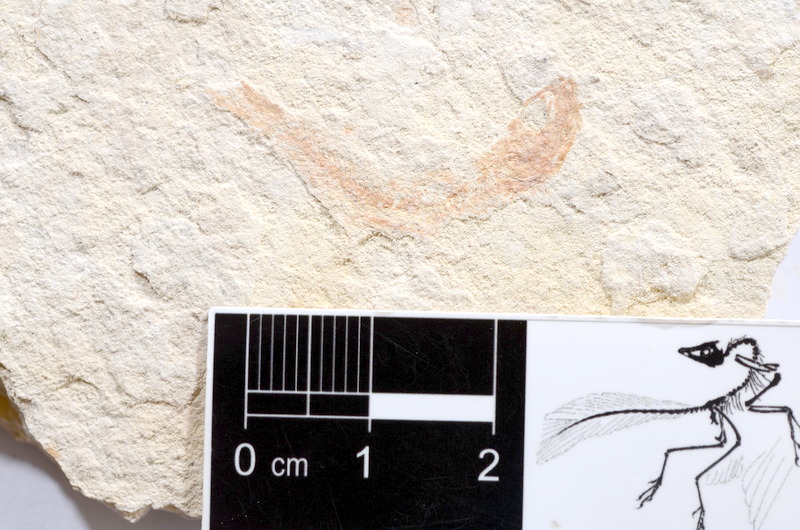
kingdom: Animalia
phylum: Chordata
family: Ascalaboidae
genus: Tharsis
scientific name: Tharsis dubius
